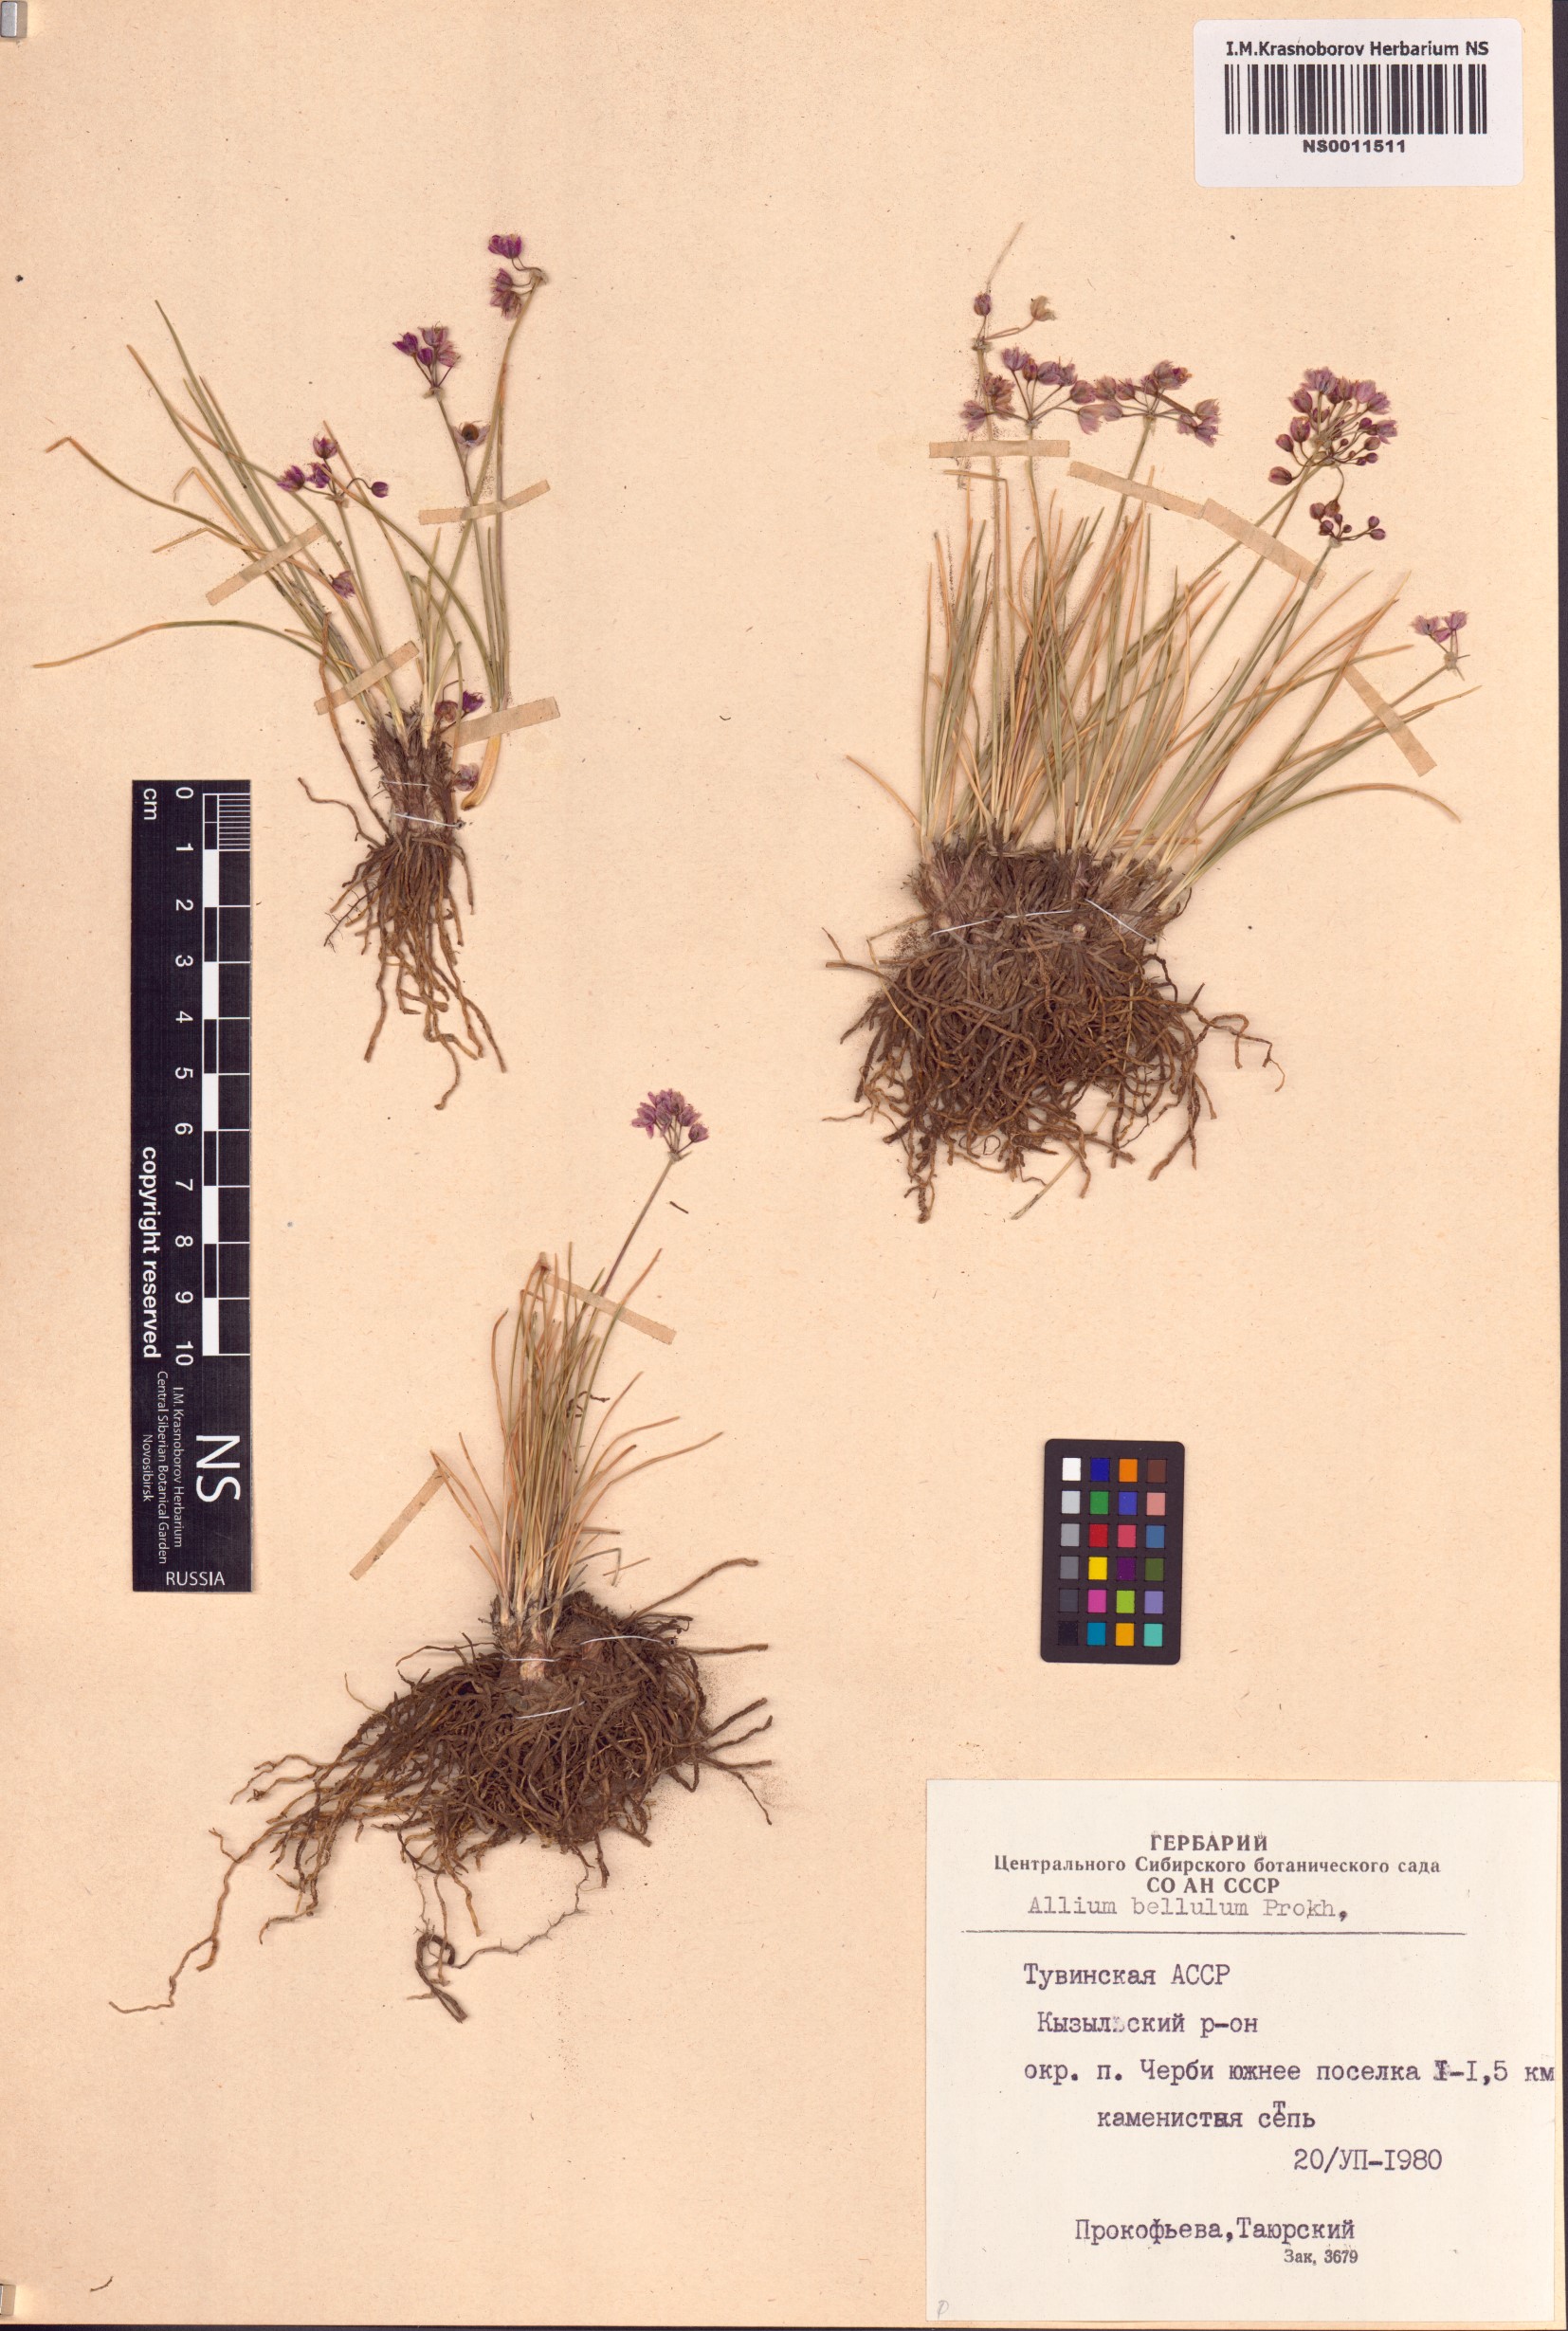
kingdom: Plantae
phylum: Tracheophyta
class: Liliopsida
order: Asparagales
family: Amaryllidaceae
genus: Allium
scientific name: Allium bellulum
